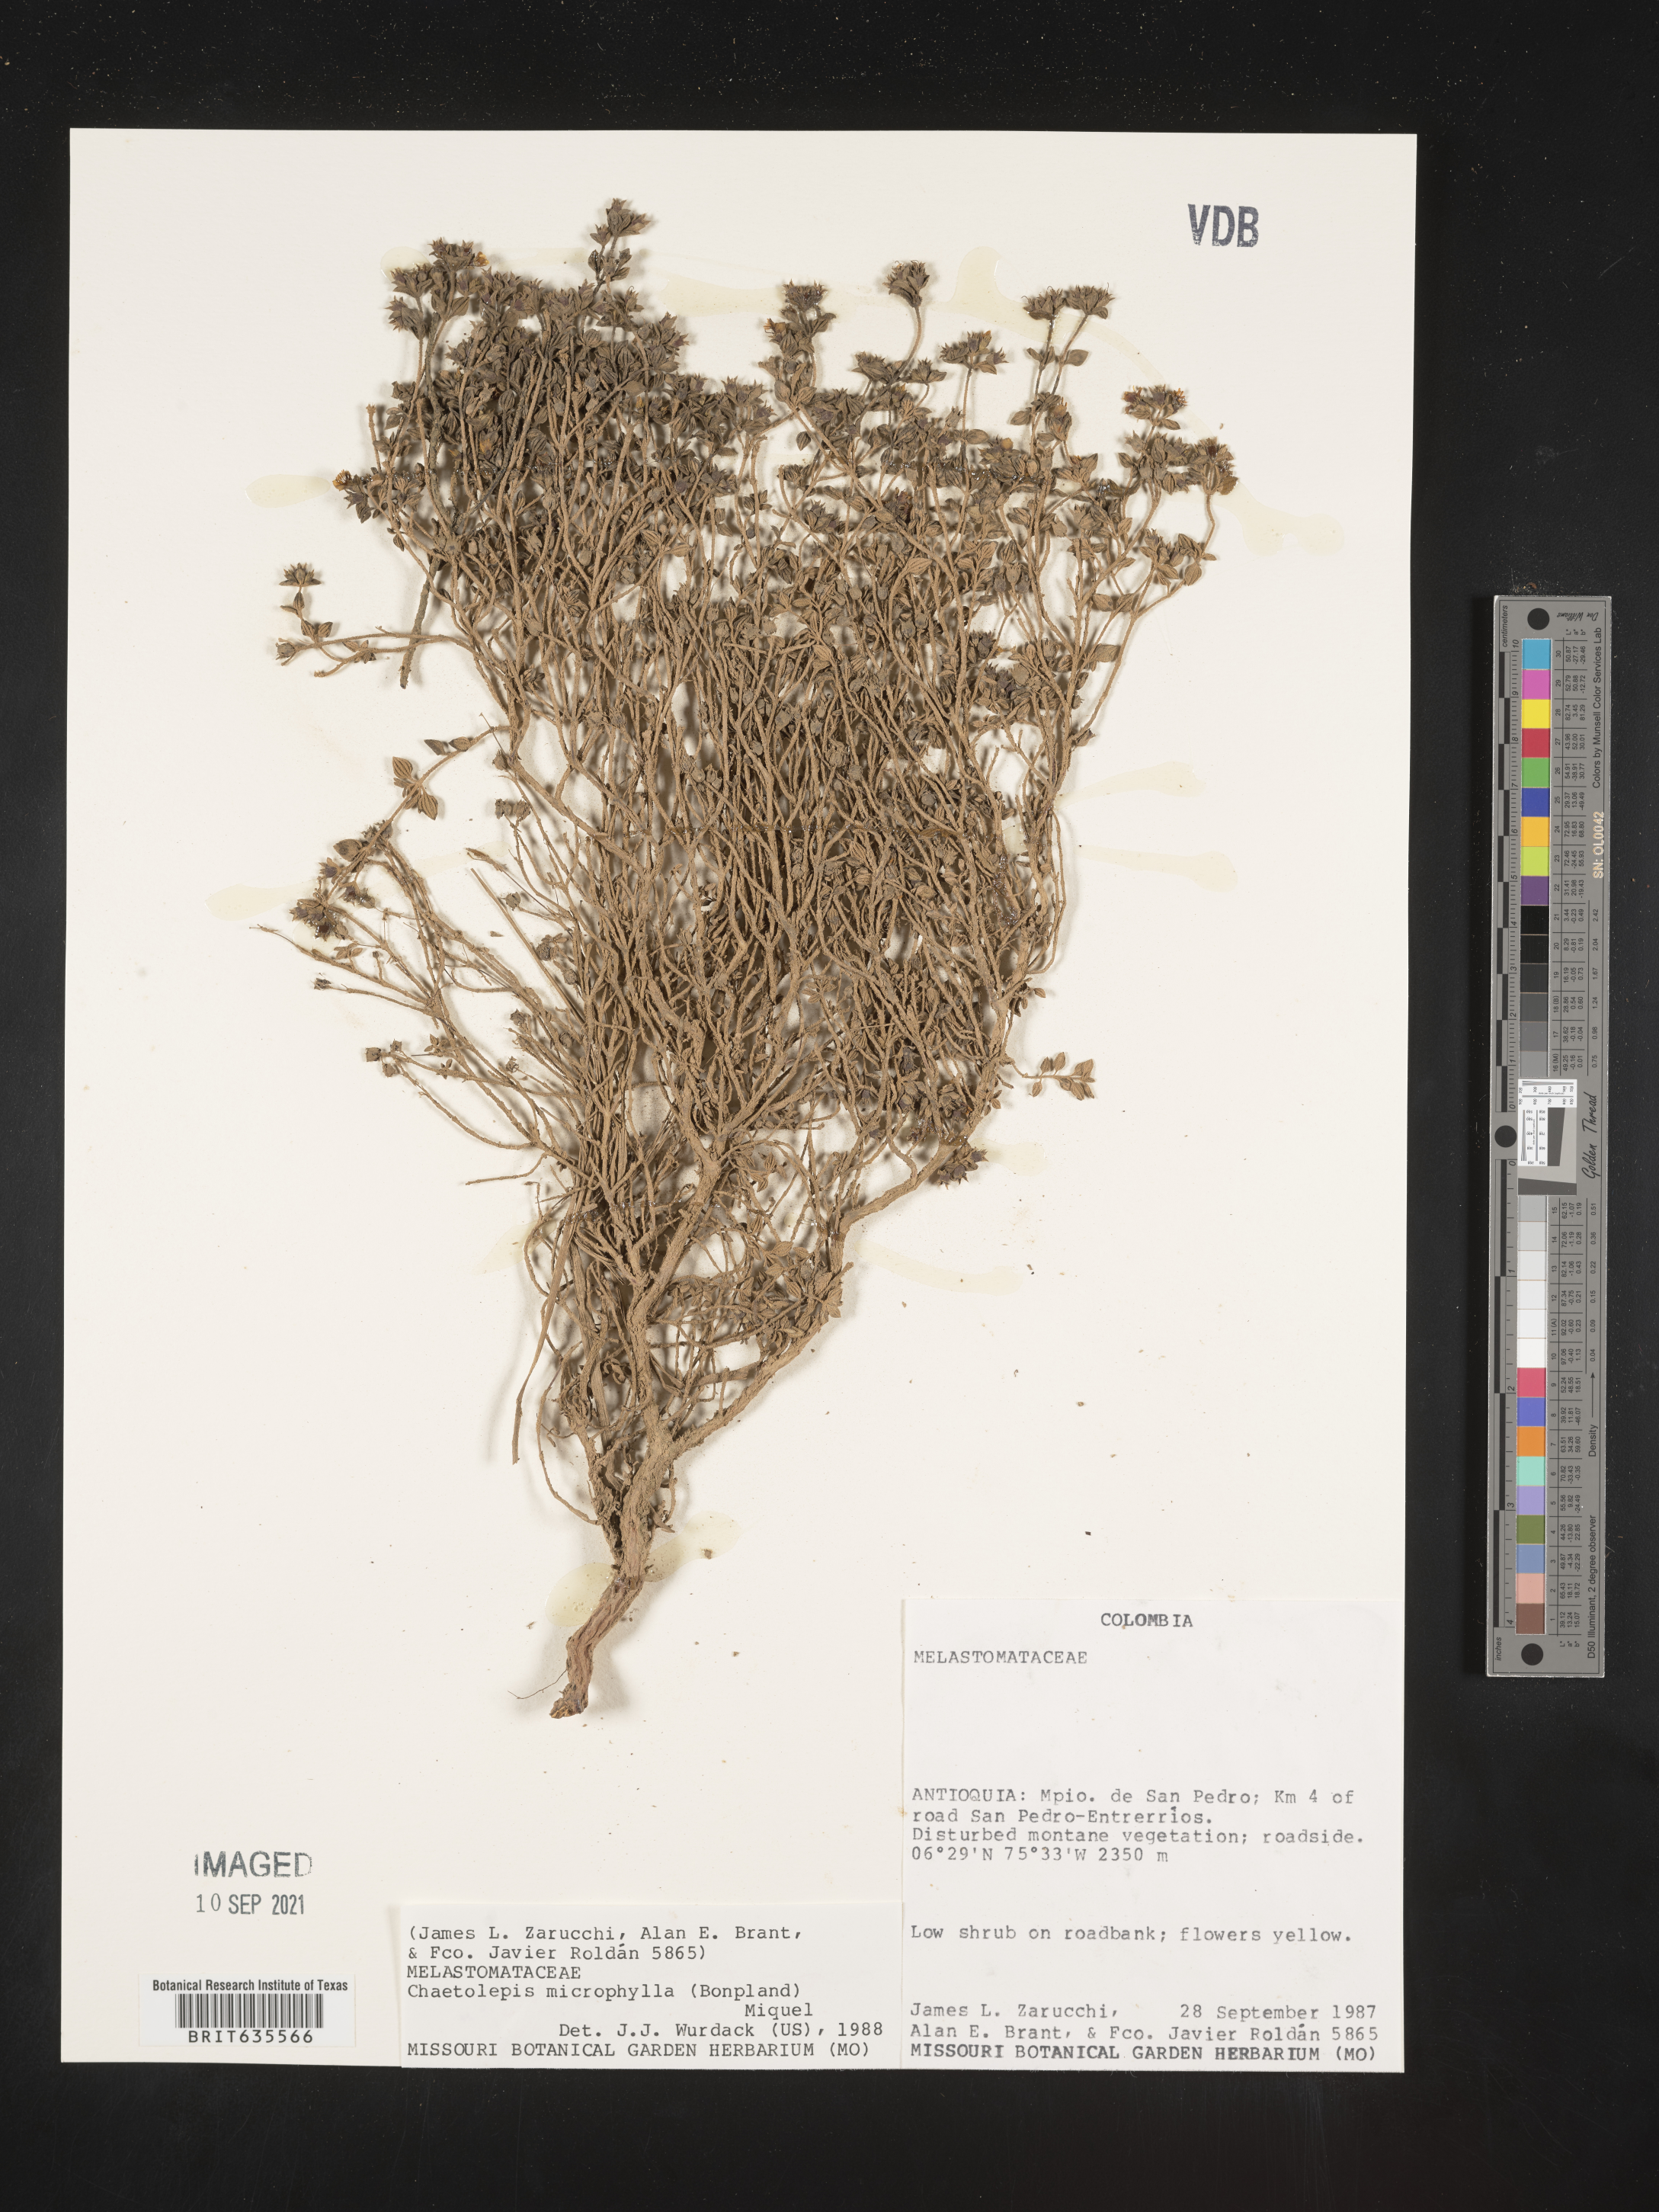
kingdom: Plantae
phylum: Tracheophyta
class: Magnoliopsida
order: Myrtales
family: Melastomataceae
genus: Chaetolepis
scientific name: Chaetolepis microphylla
